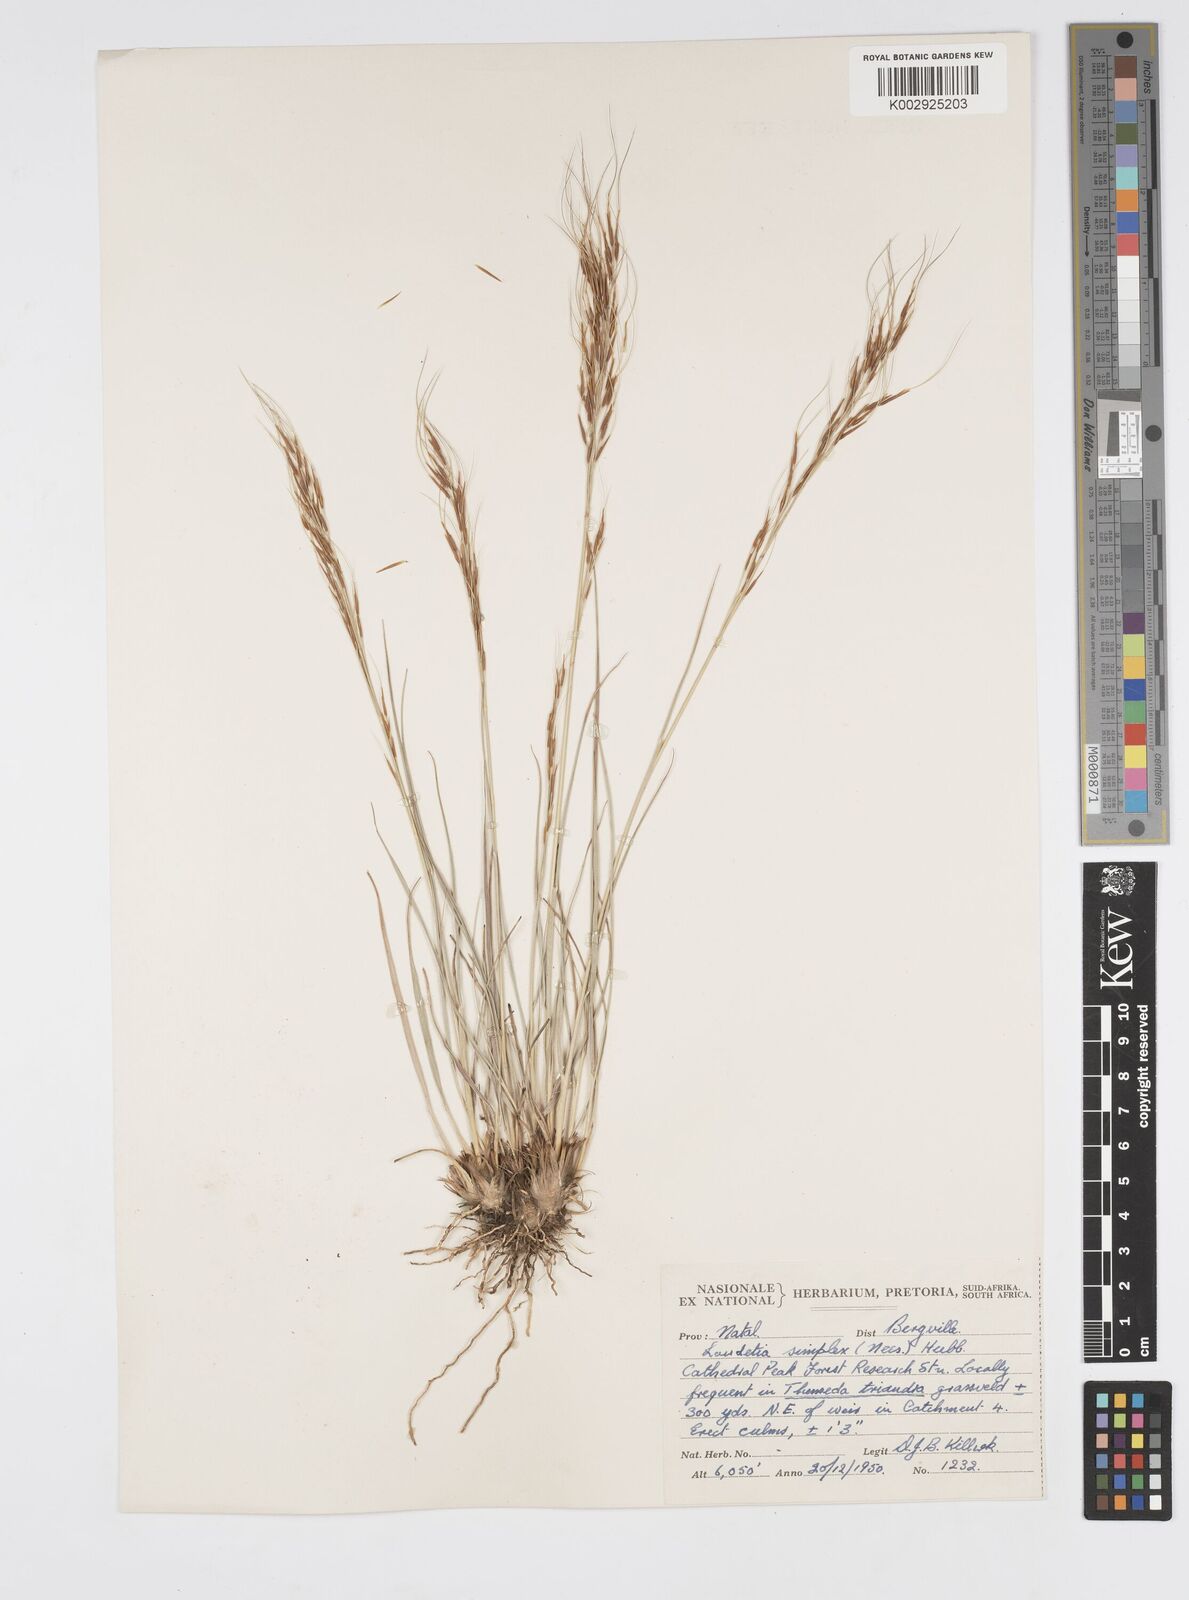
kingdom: Plantae
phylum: Tracheophyta
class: Liliopsida
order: Poales
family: Poaceae
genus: Loudetia
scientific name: Loudetia simplex
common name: Common russet grass
